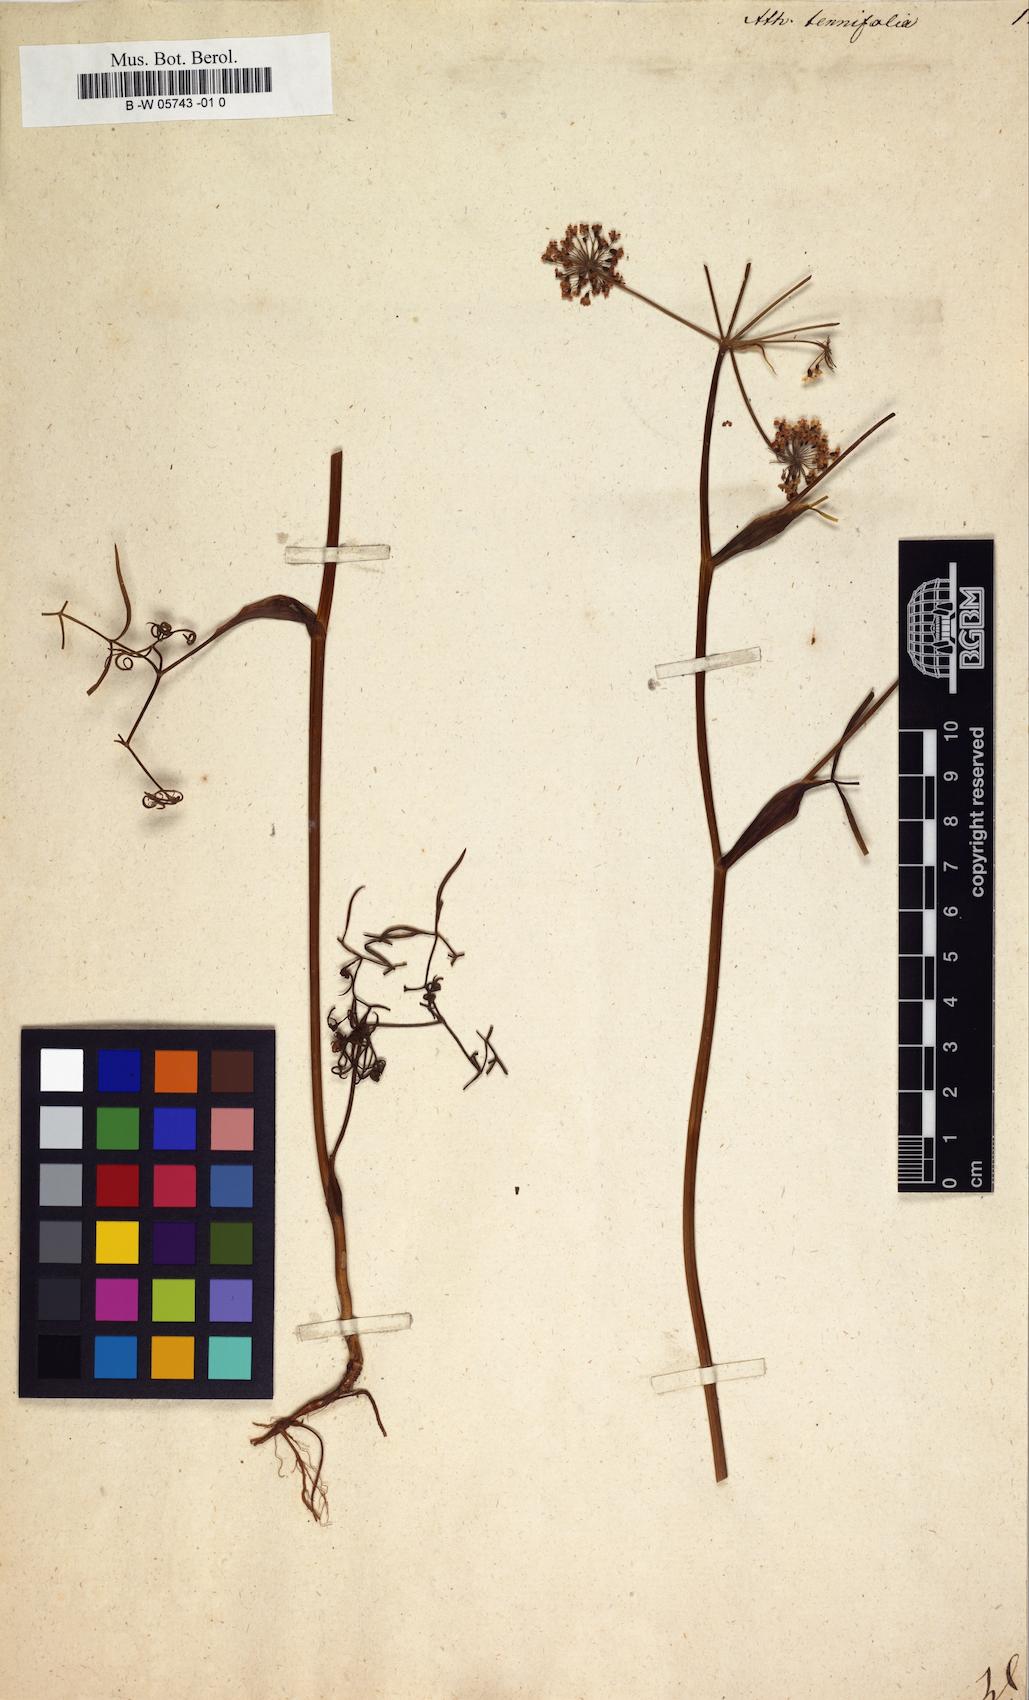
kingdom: Plantae
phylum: Tracheophyta
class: Magnoliopsida
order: Apiales
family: Apiaceae
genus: Ostericum
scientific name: Ostericum tenuifolium
